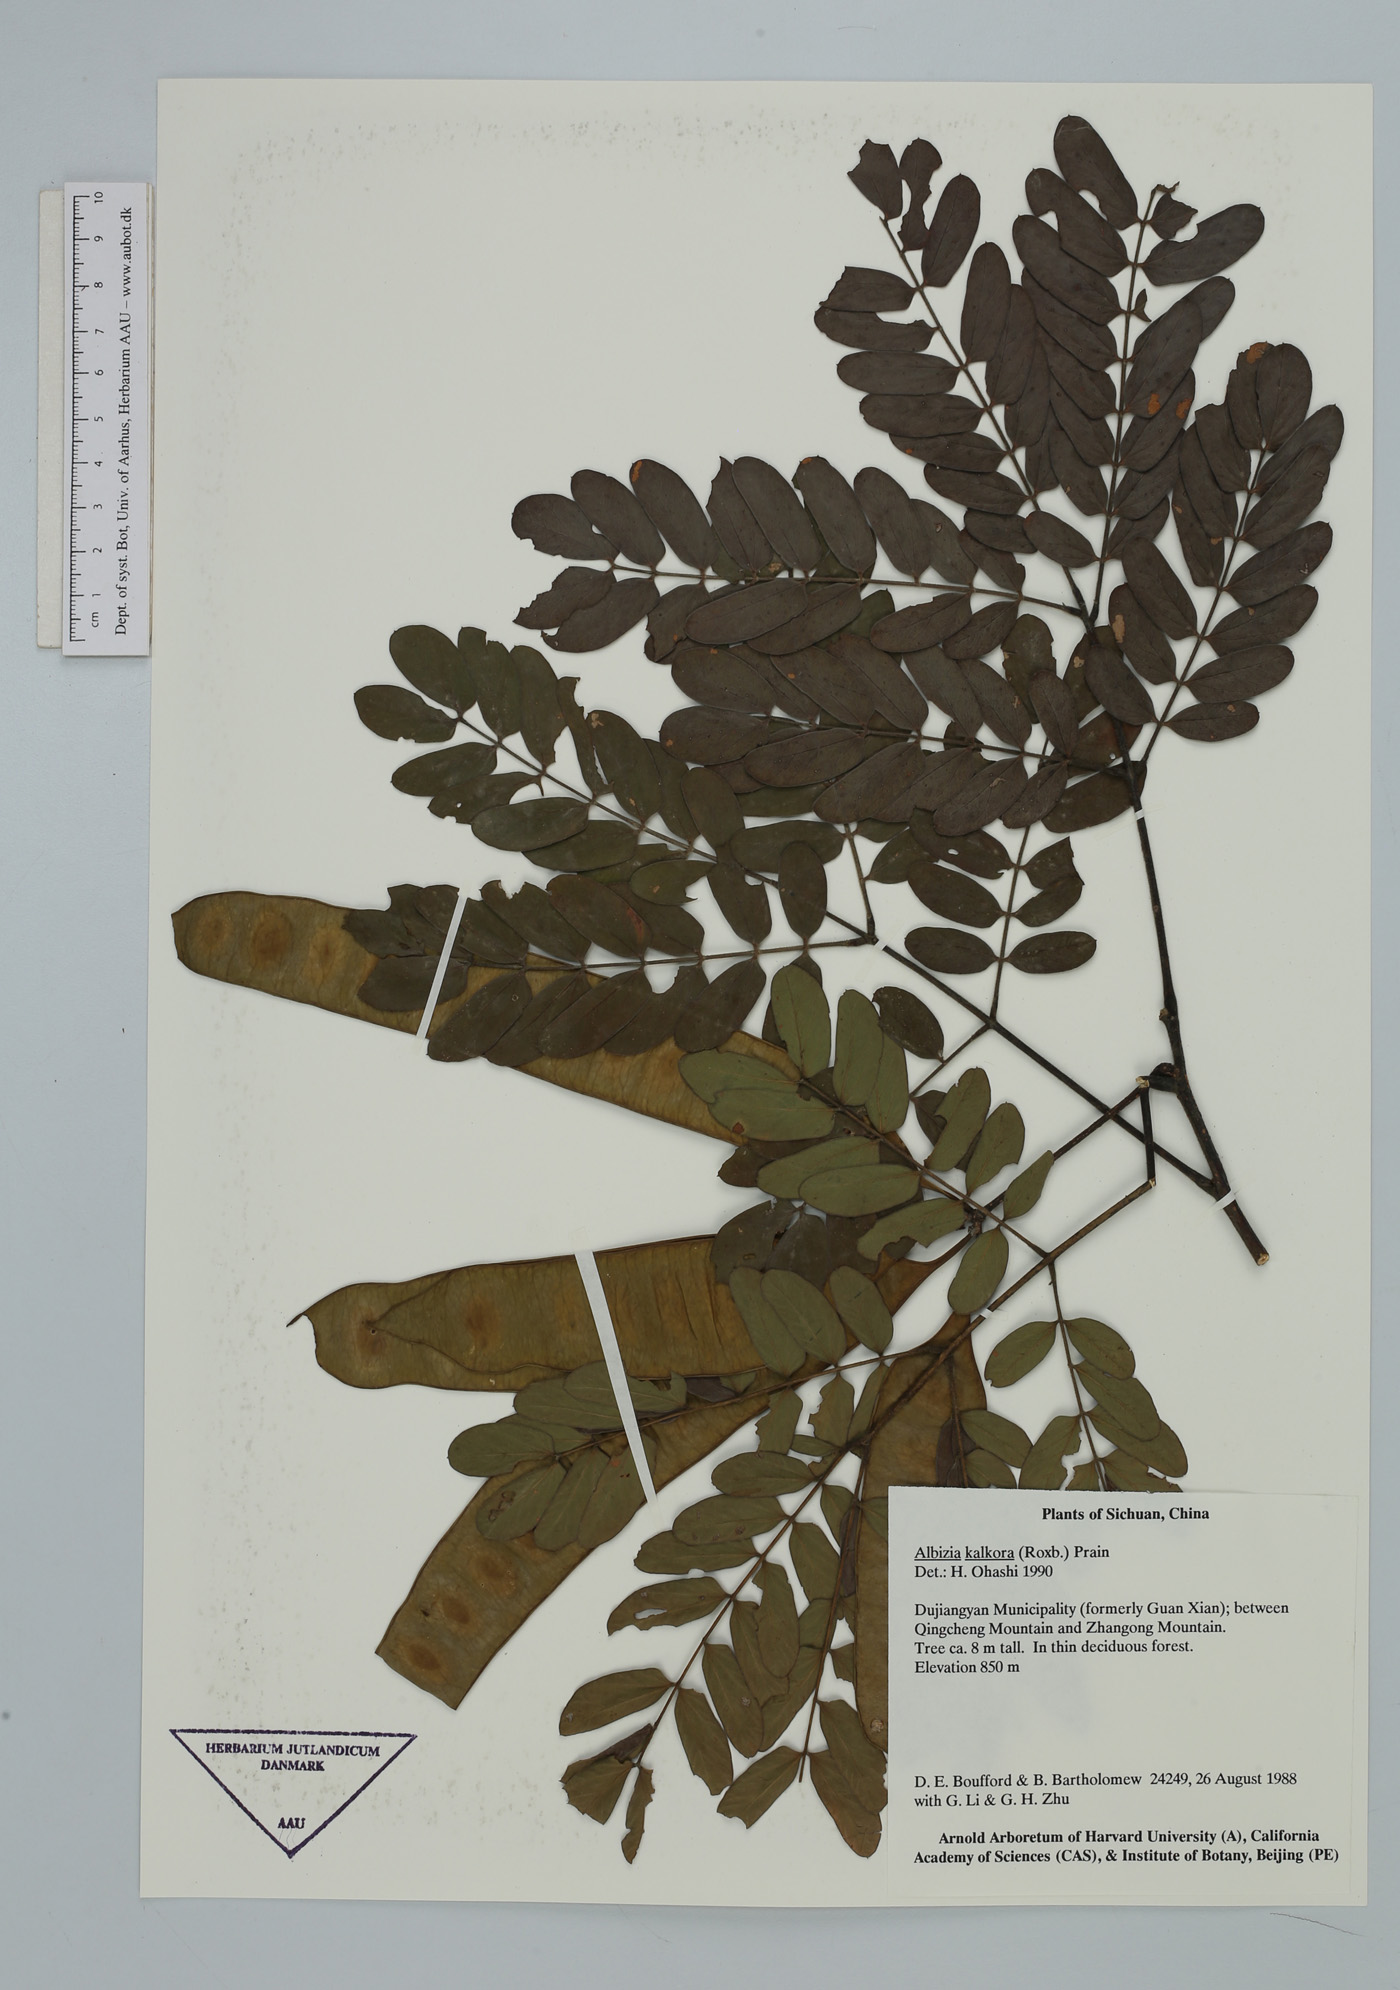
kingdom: Plantae
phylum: Tracheophyta
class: Magnoliopsida
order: Fabales
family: Fabaceae
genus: Albizia
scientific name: Albizia kalkora
